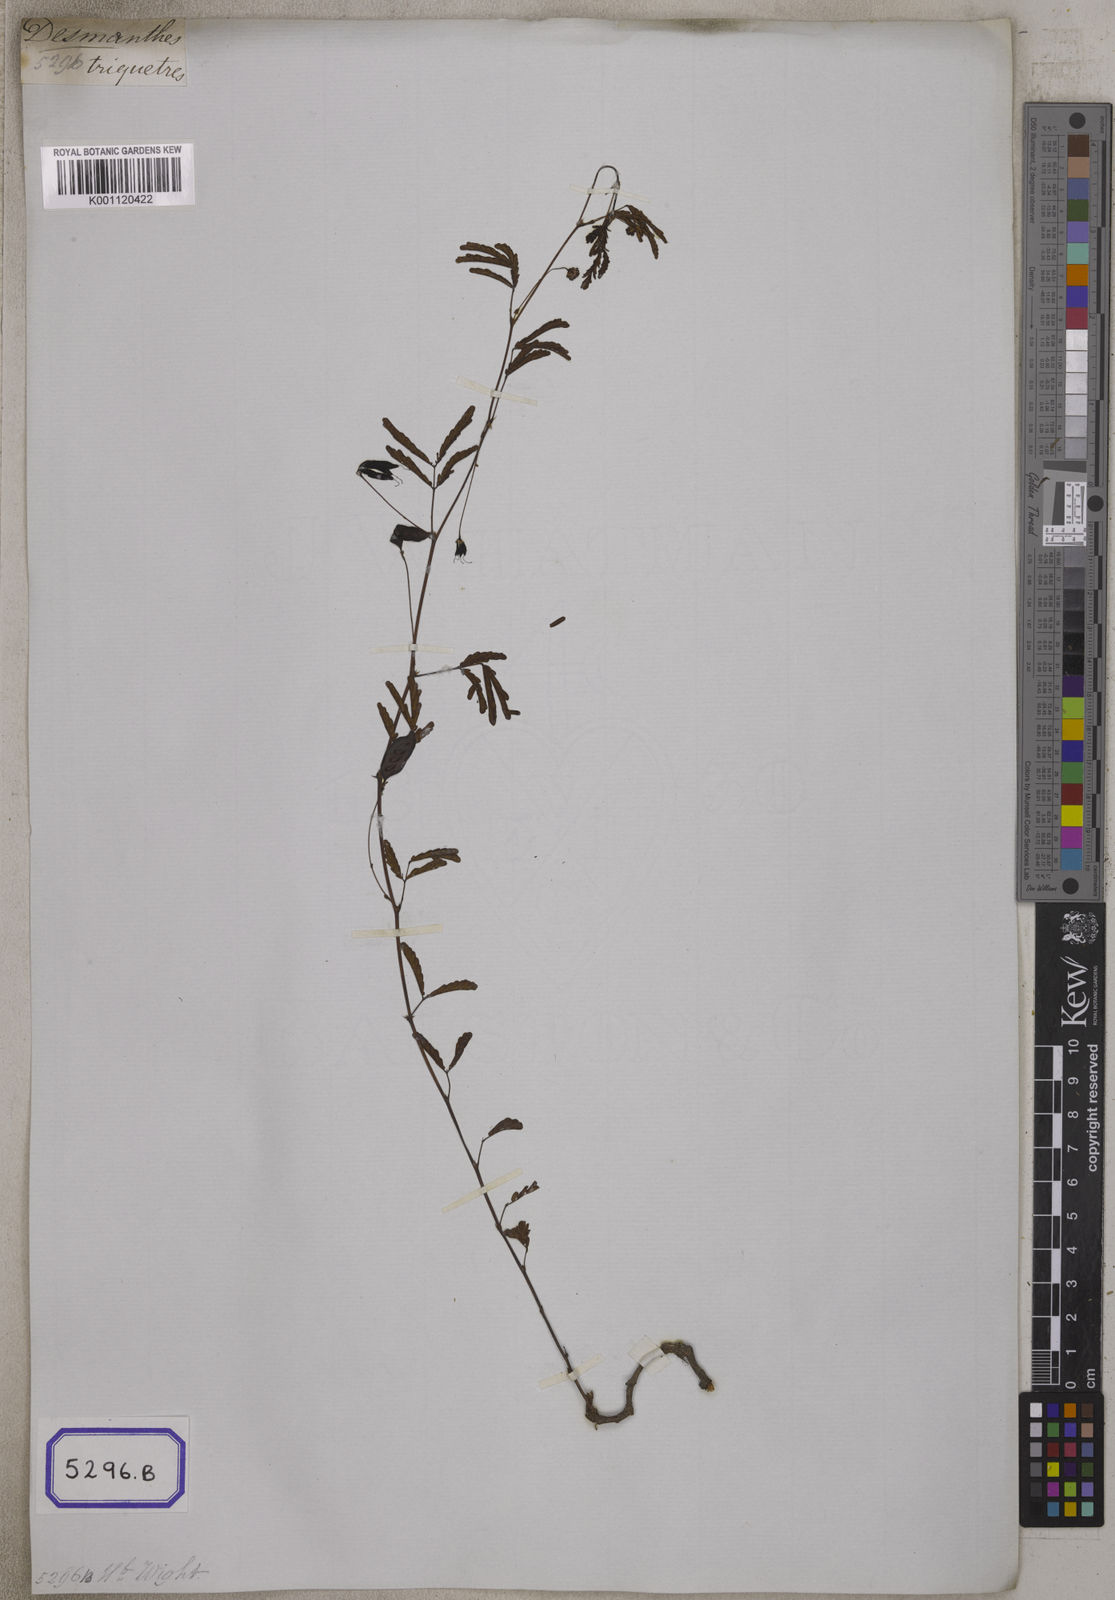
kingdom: Plantae
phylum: Tracheophyta
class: Magnoliopsida
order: Fabales
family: Fabaceae
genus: Neptunia
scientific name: Neptunia triquetra
